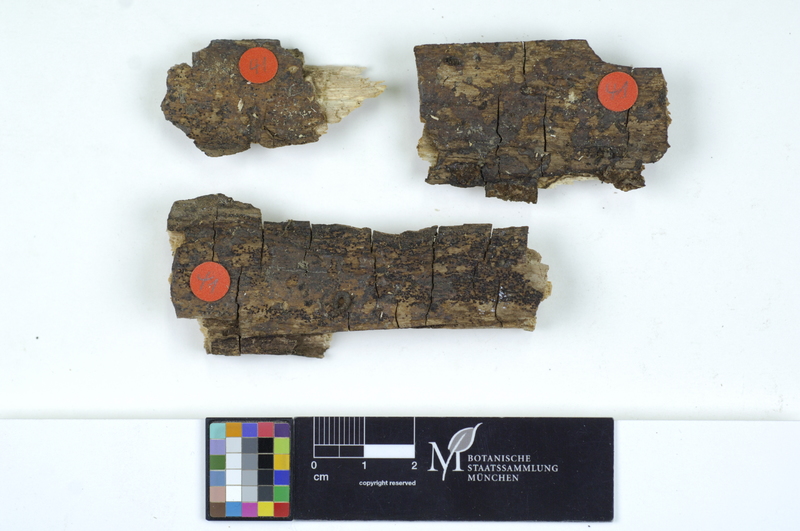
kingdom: Plantae
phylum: Tracheophyta
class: Magnoliopsida
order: Lamiales
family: Oleaceae
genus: Fraxinus
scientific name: Fraxinus
